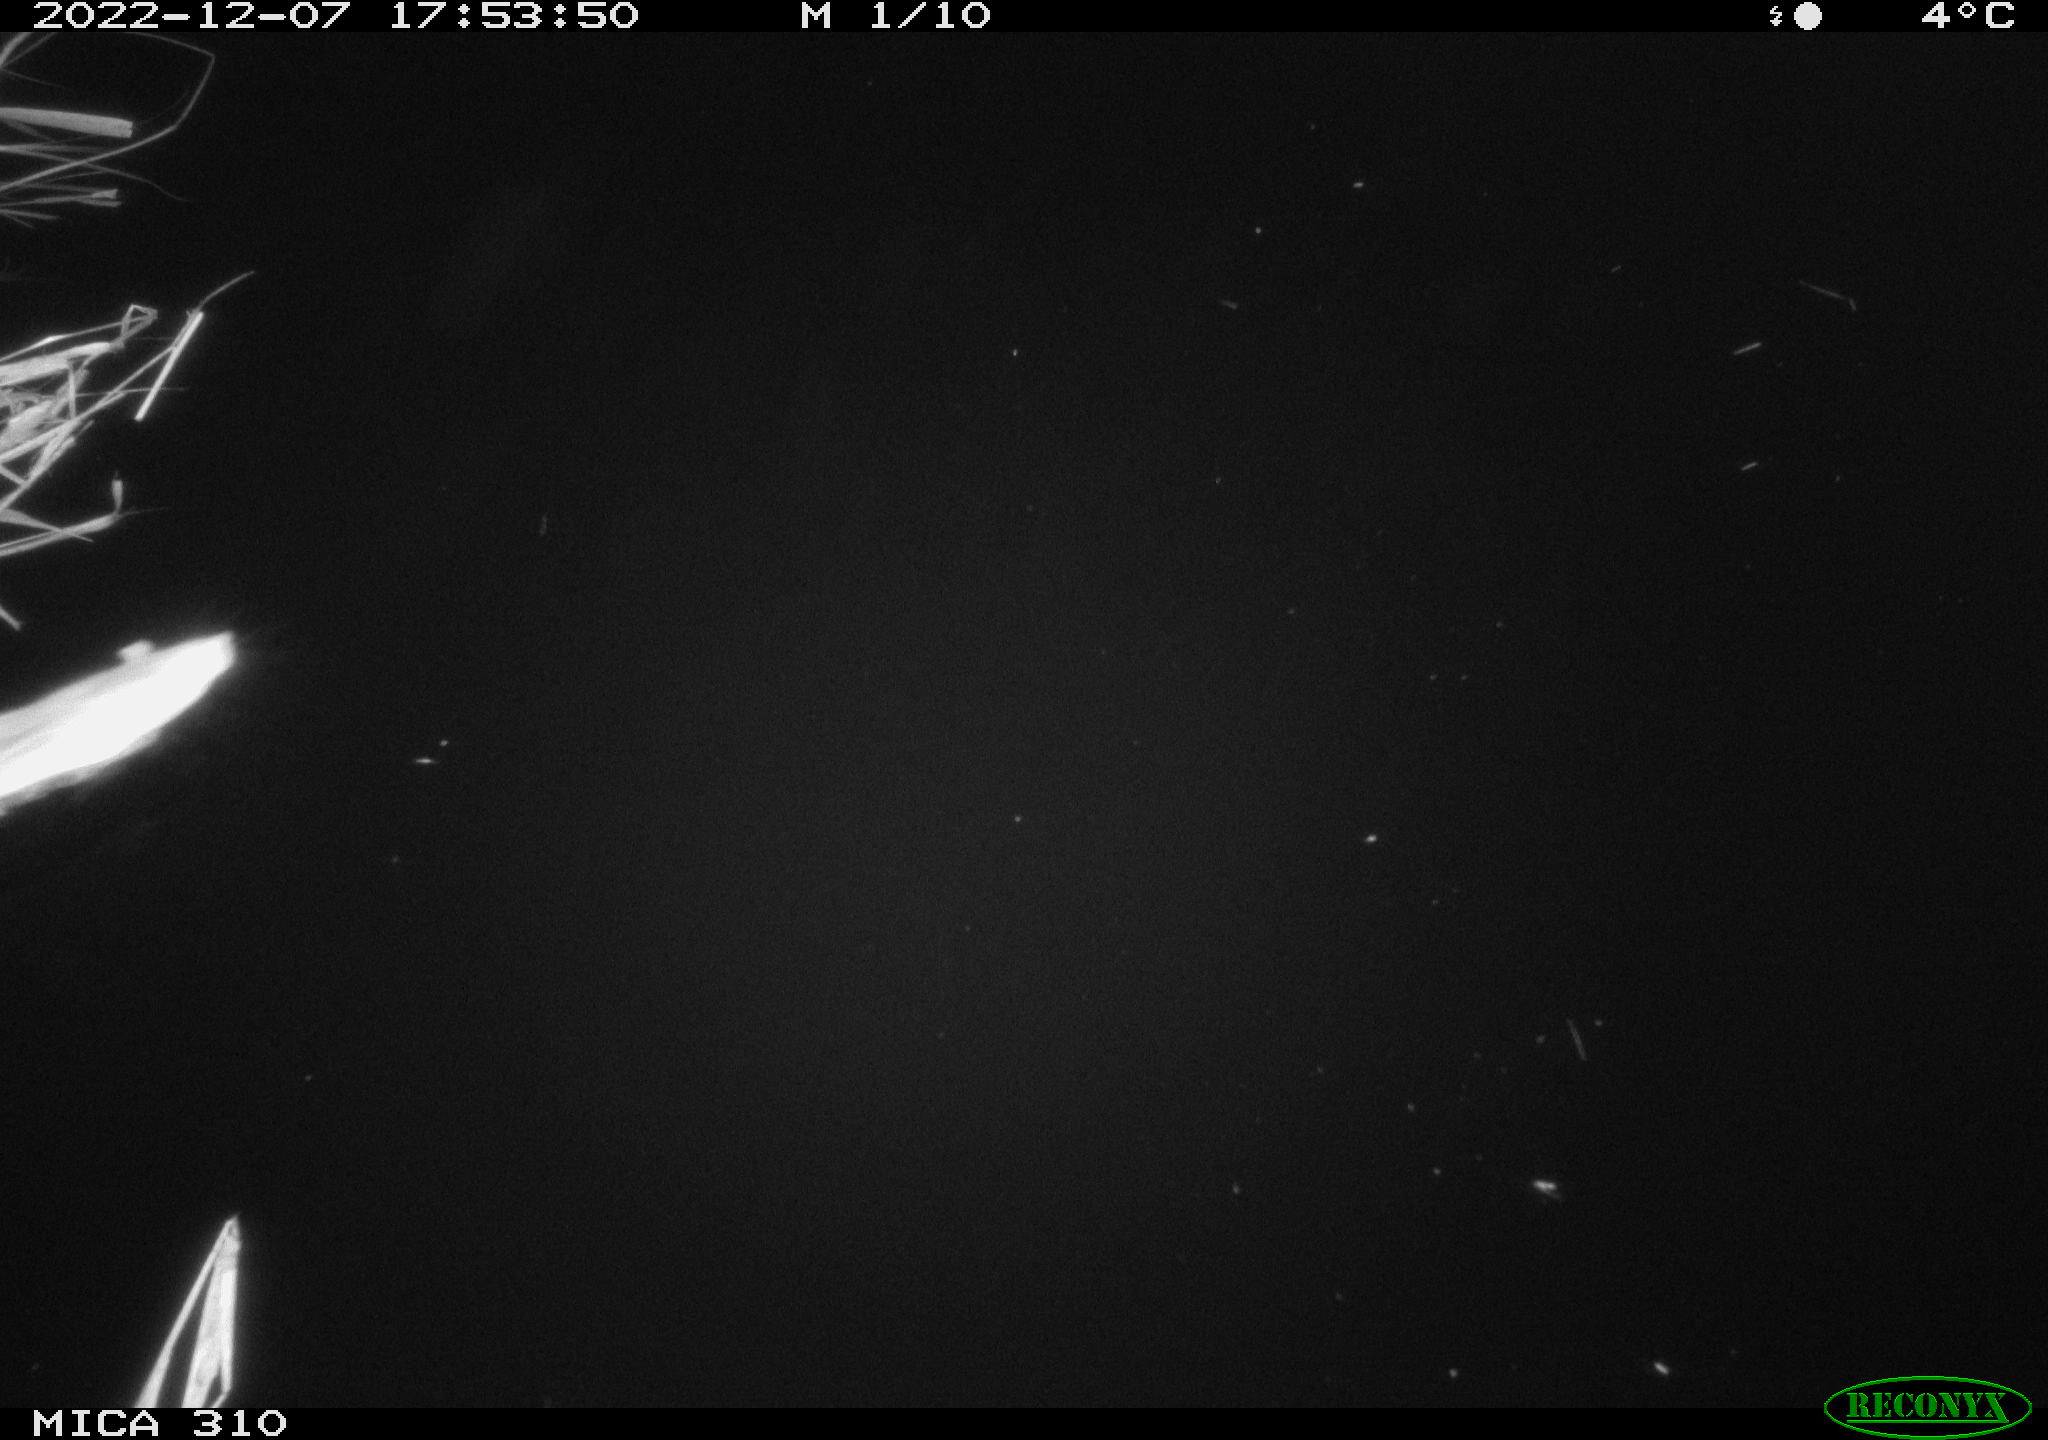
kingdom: Animalia
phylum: Chordata
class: Mammalia
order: Rodentia
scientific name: Rodentia
